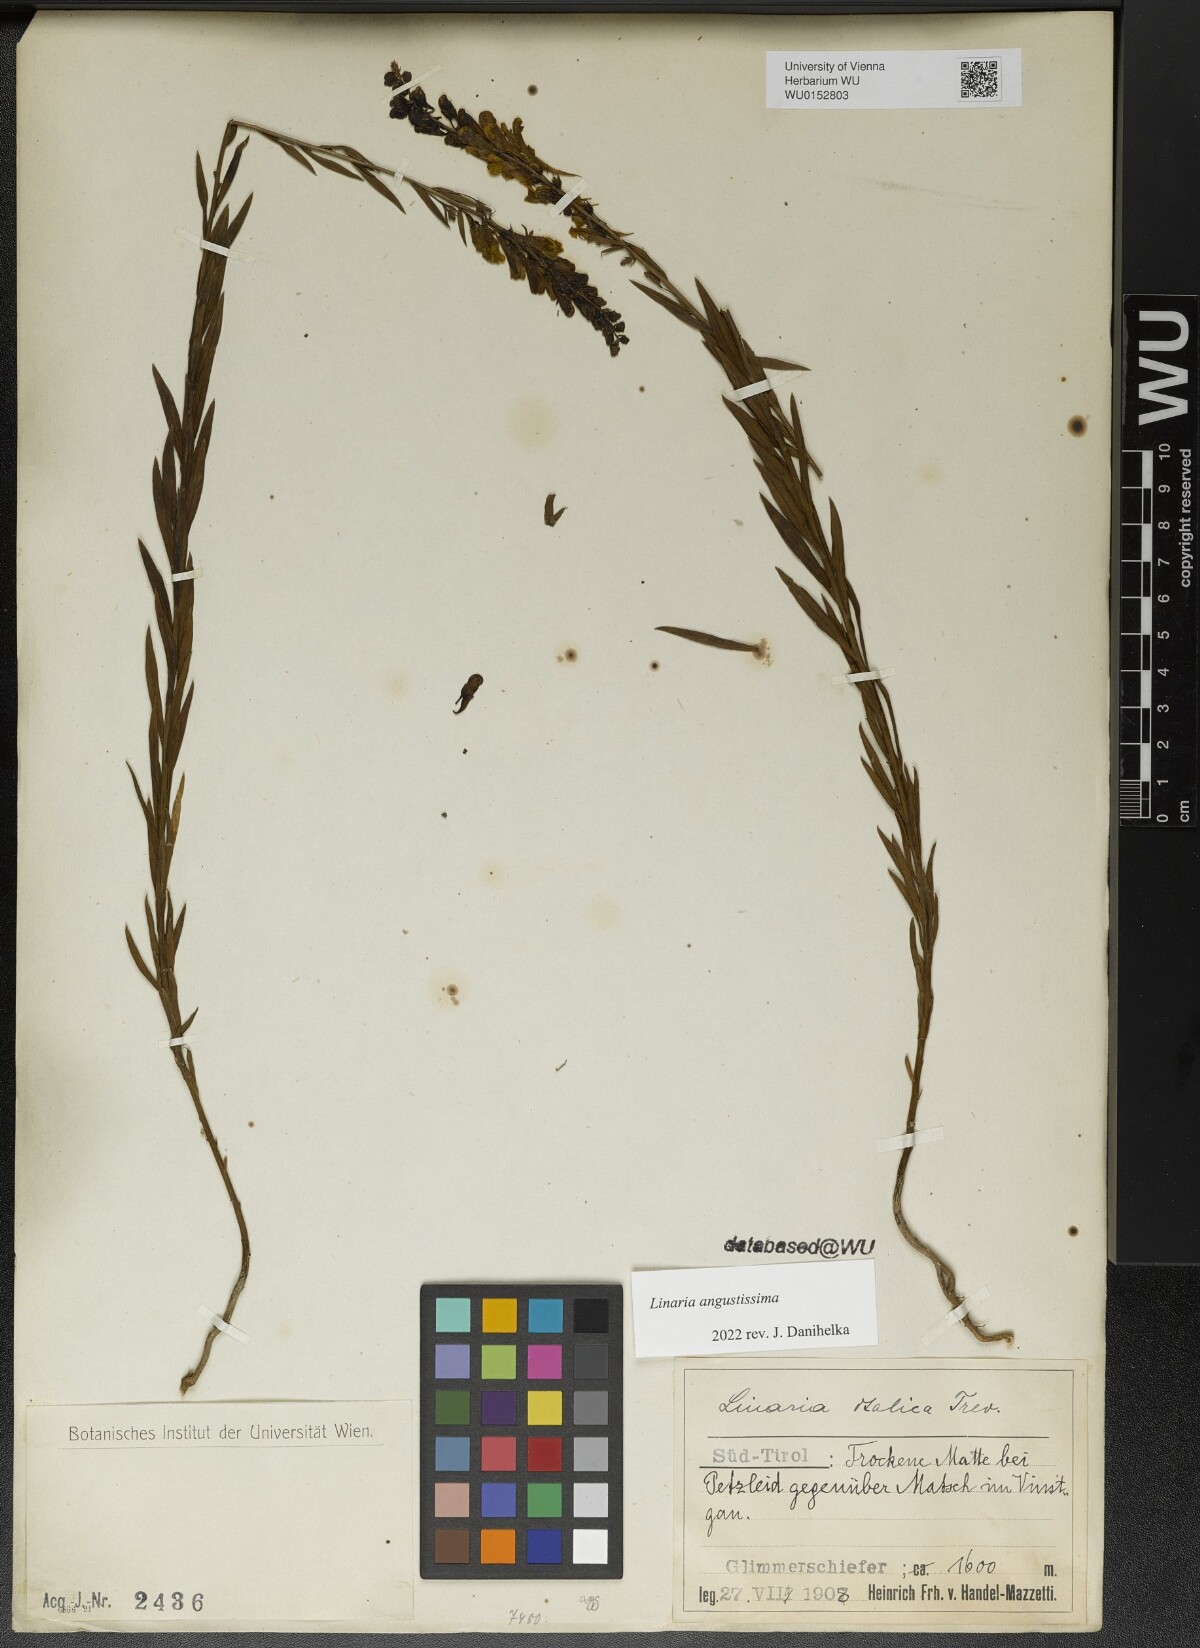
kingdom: Plantae
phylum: Tracheophyta
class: Magnoliopsida
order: Lamiales
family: Plantaginaceae
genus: Linaria
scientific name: Linaria angustissima
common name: Italian toadflax
